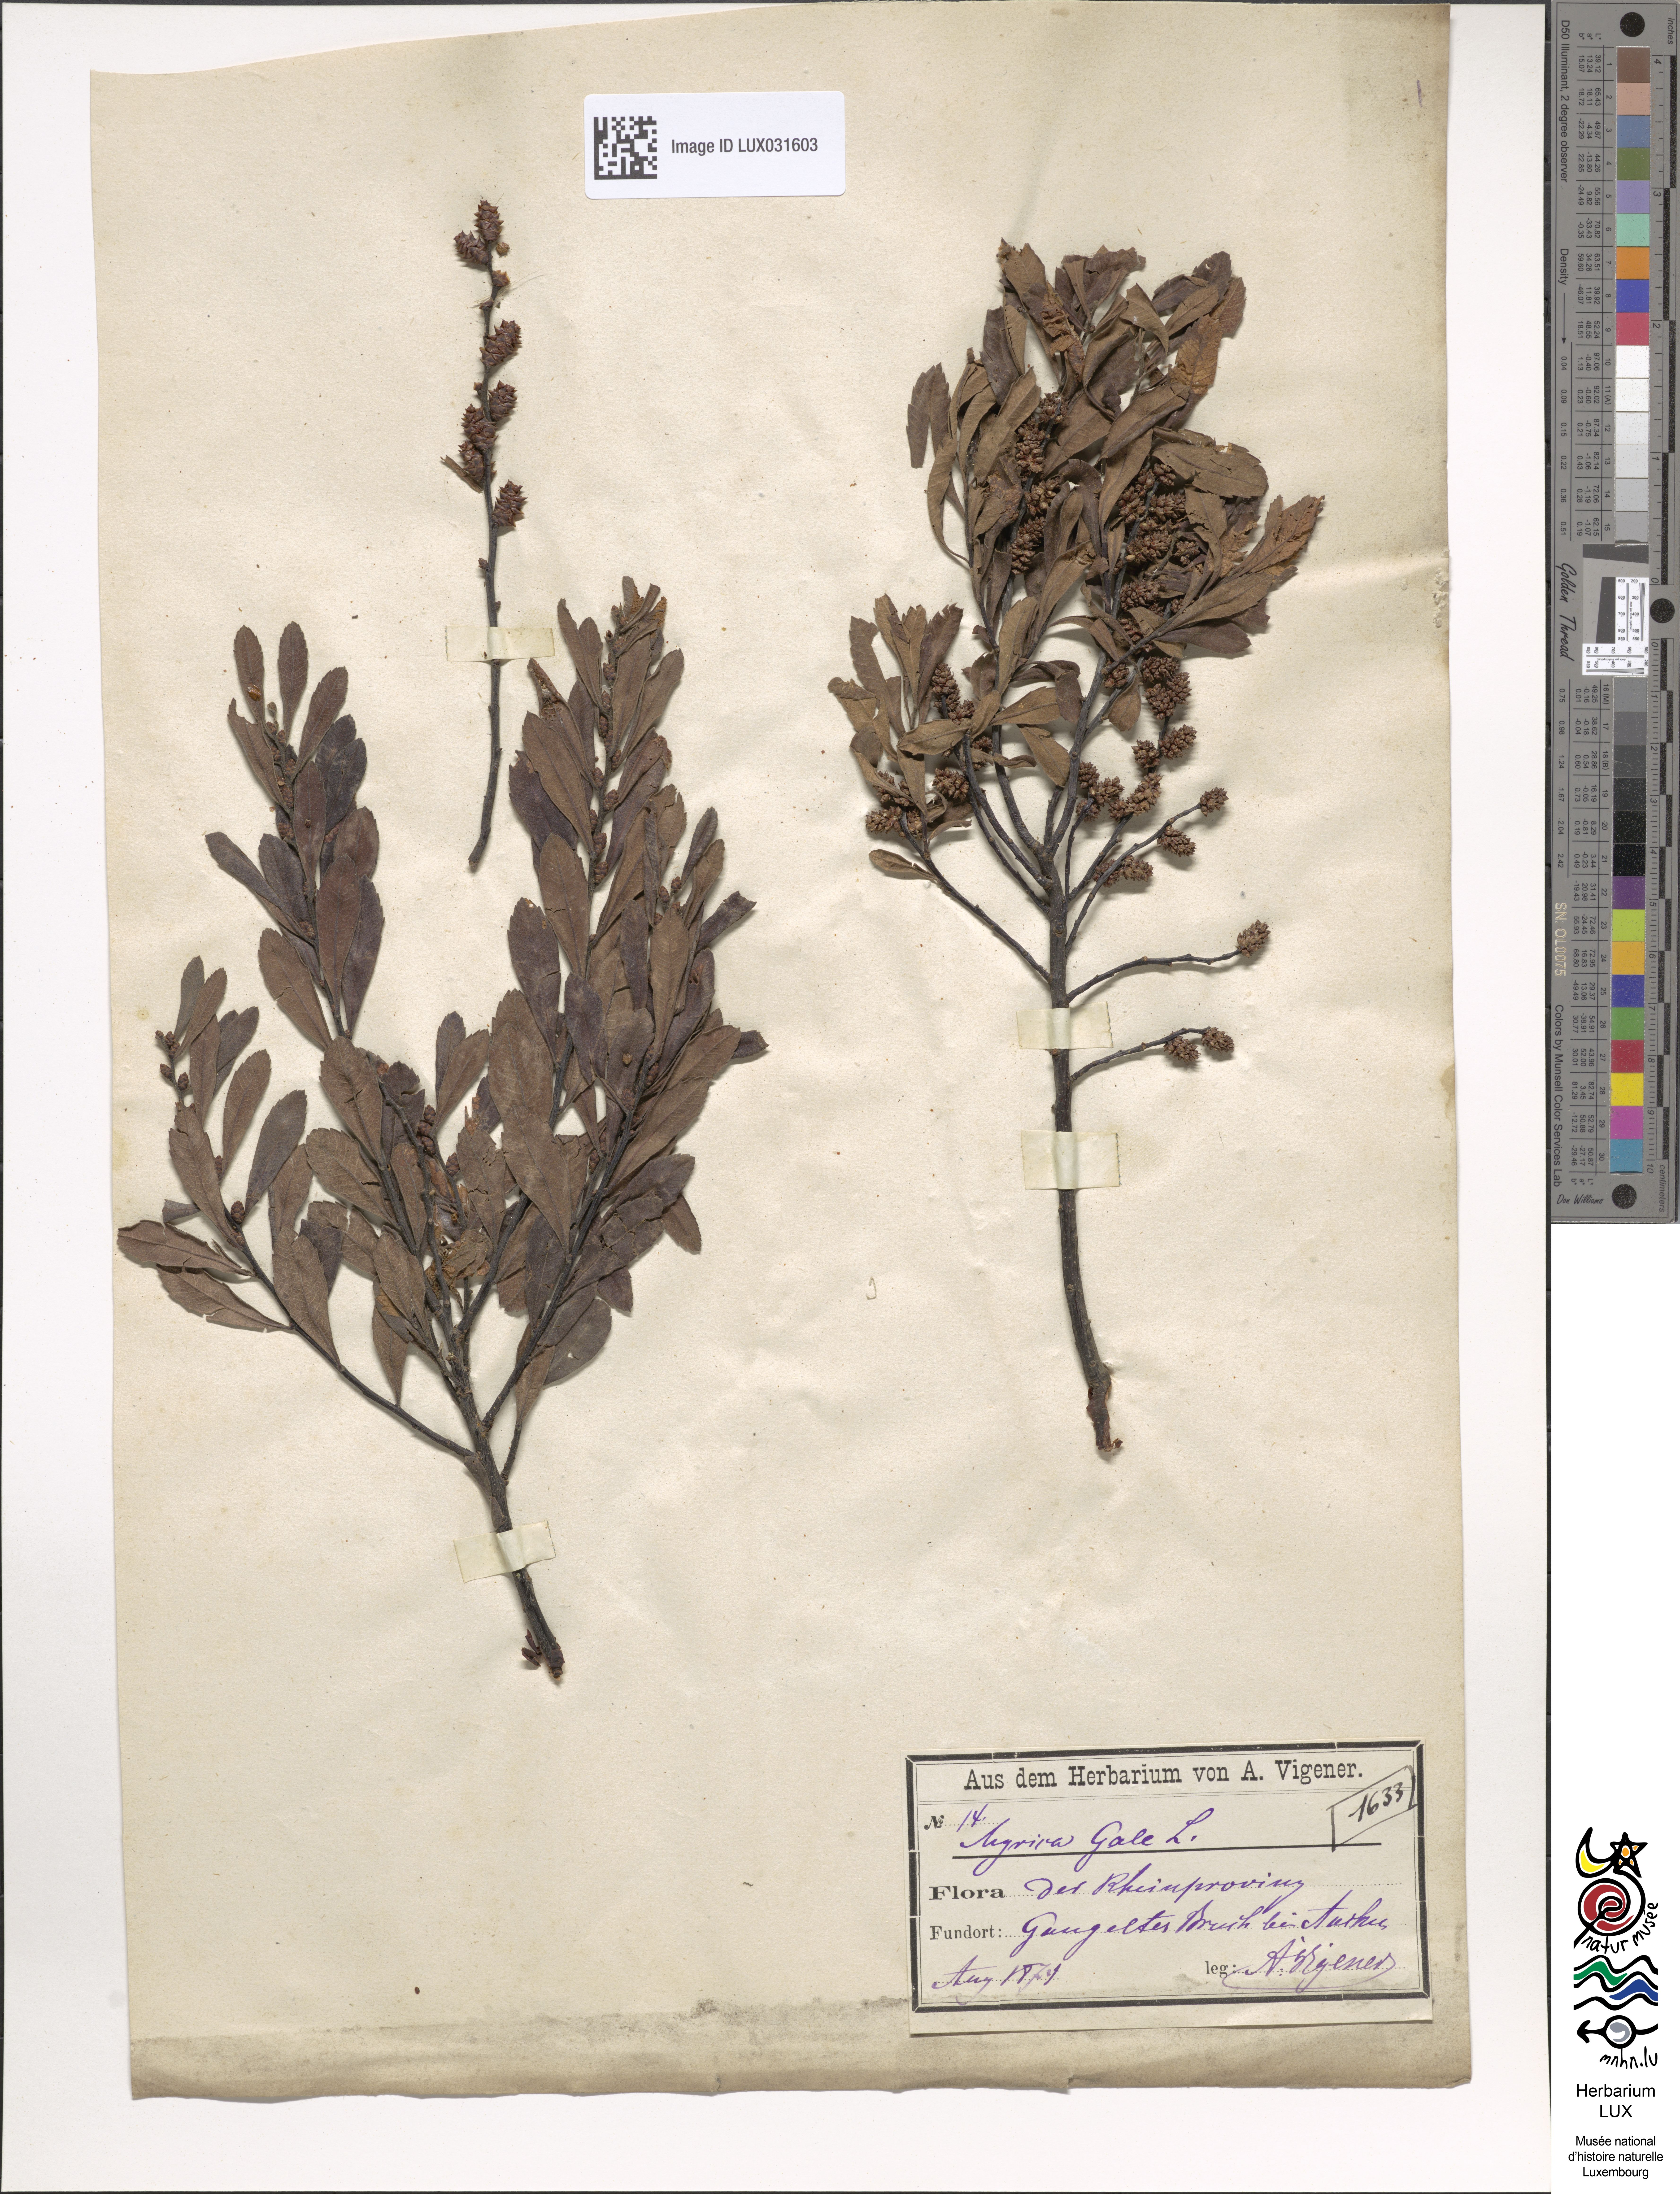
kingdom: Plantae
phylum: Tracheophyta
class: Magnoliopsida
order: Fagales
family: Myricaceae
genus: Myrica
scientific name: Myrica gale
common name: Sweet gale
